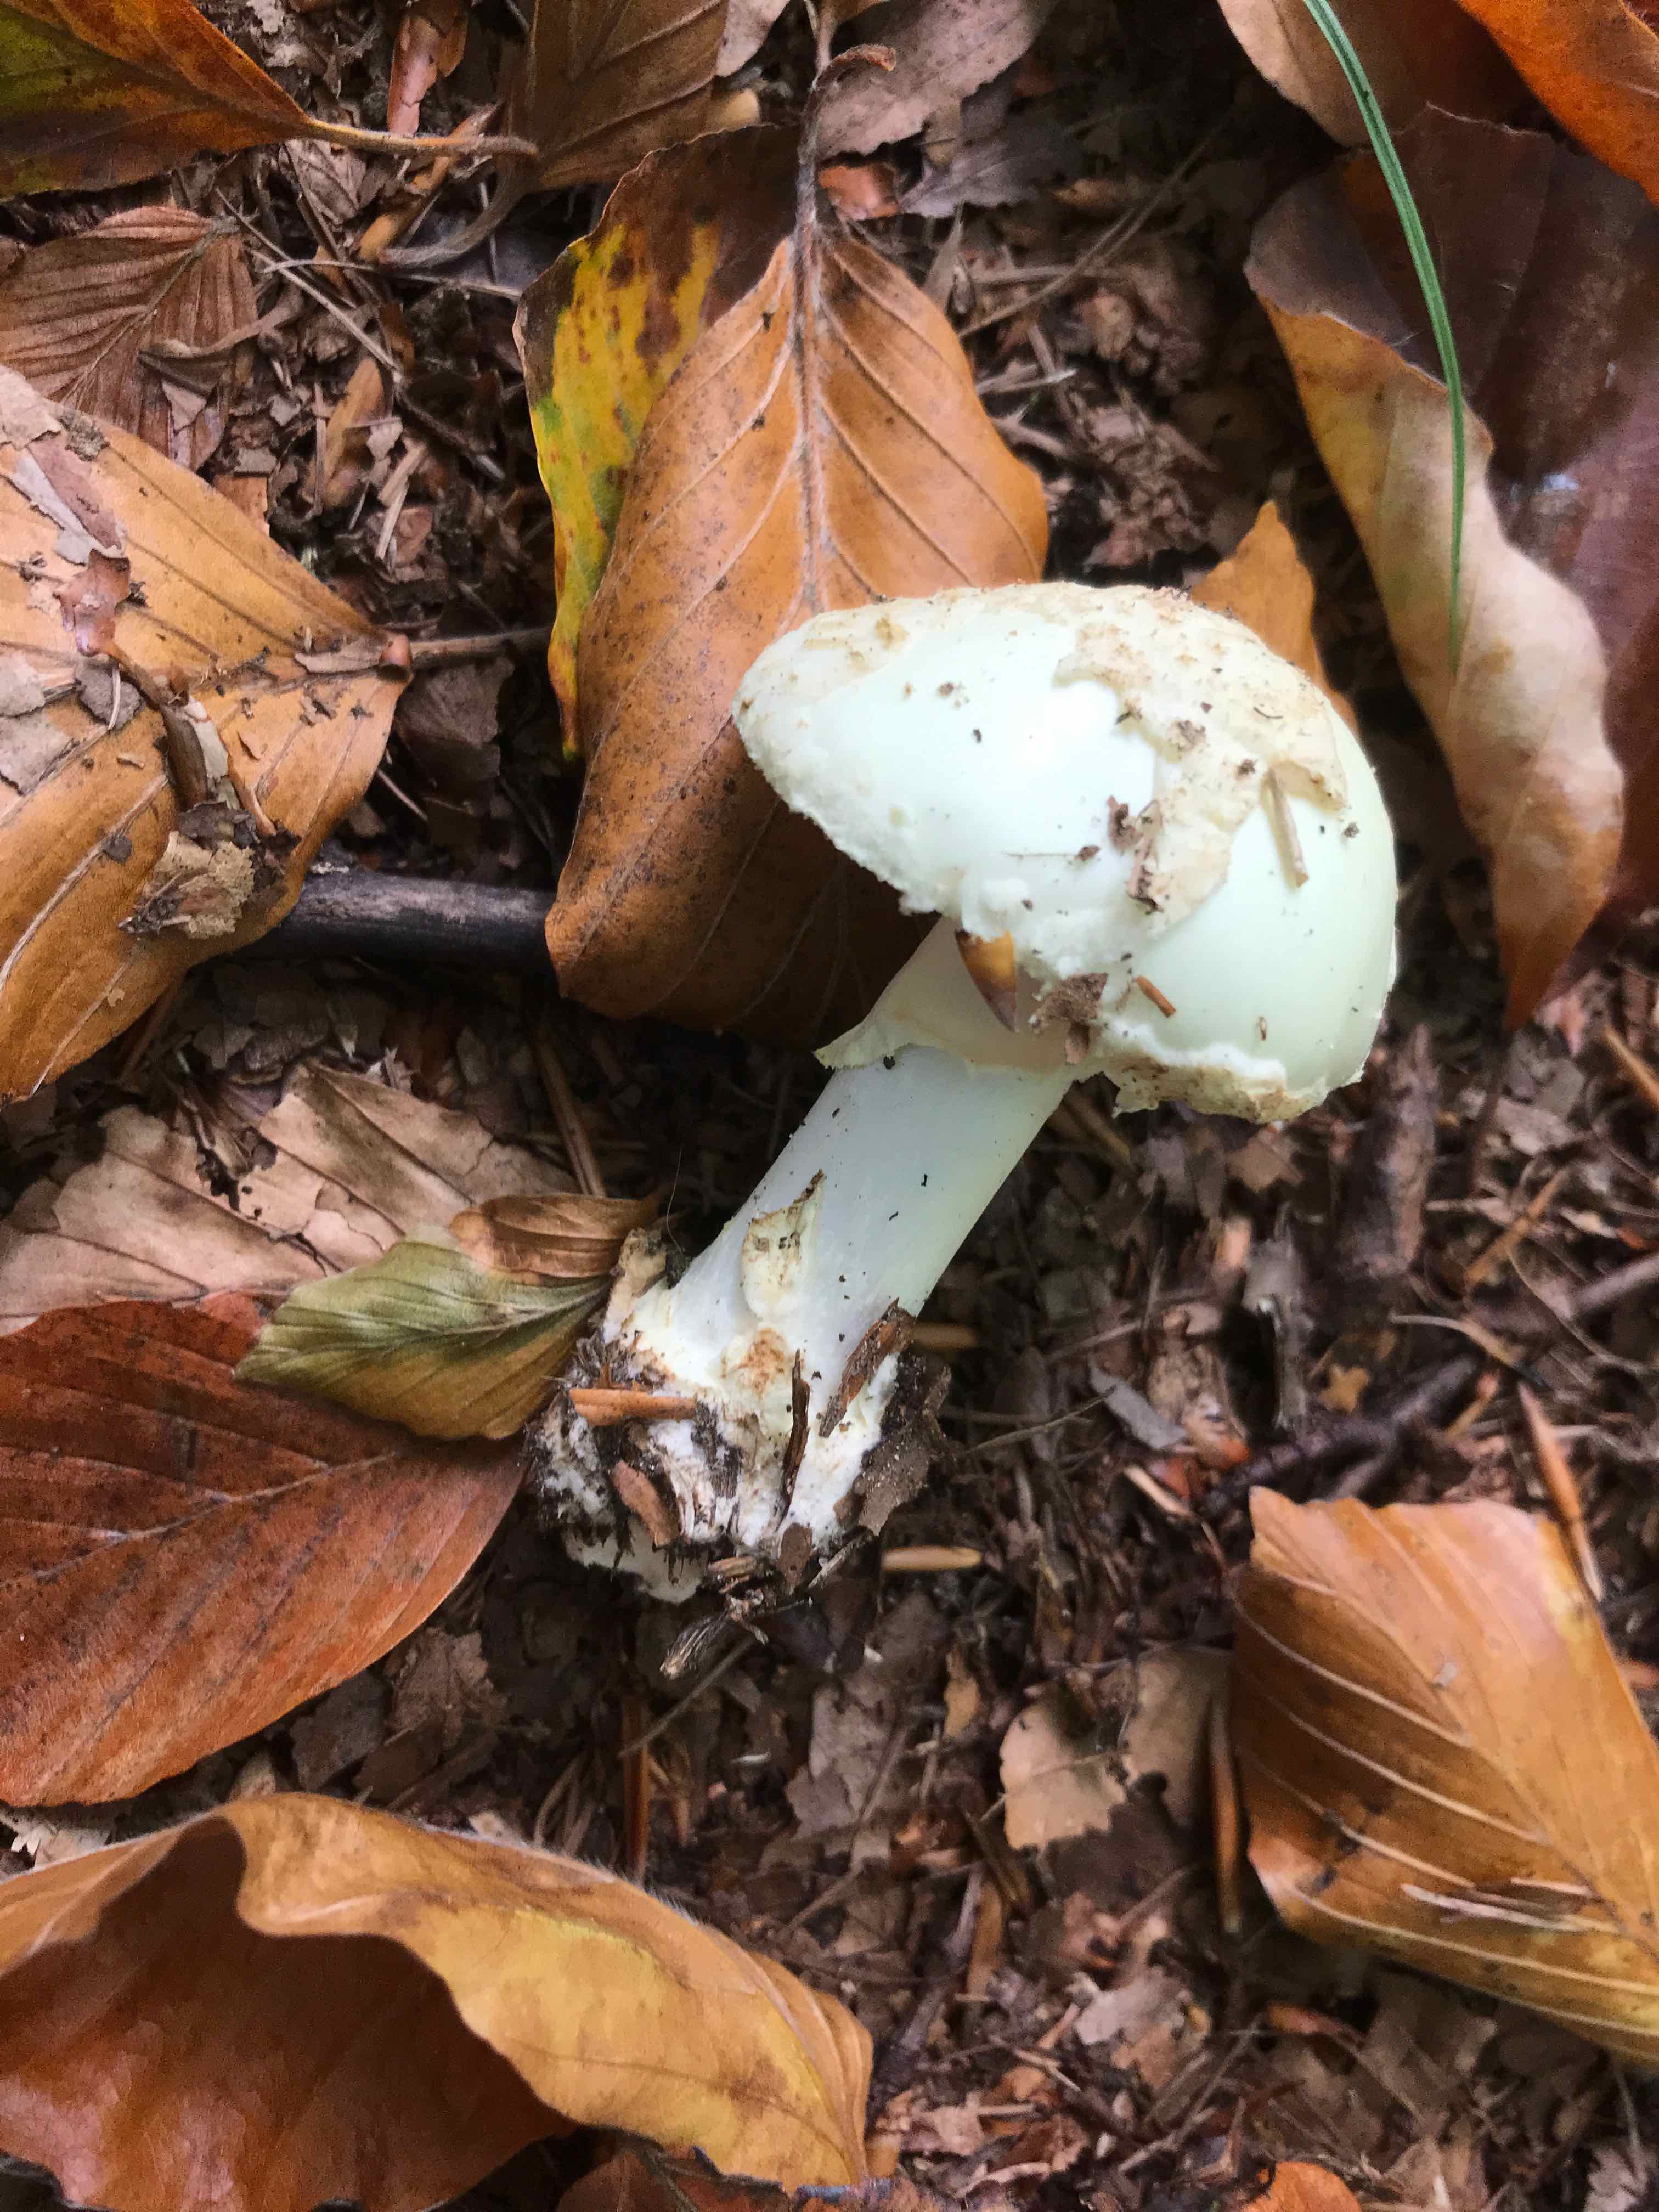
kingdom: Fungi
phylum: Basidiomycota
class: Agaricomycetes
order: Agaricales
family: Amanitaceae
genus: Amanita
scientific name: Amanita citrina
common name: False death-cap
